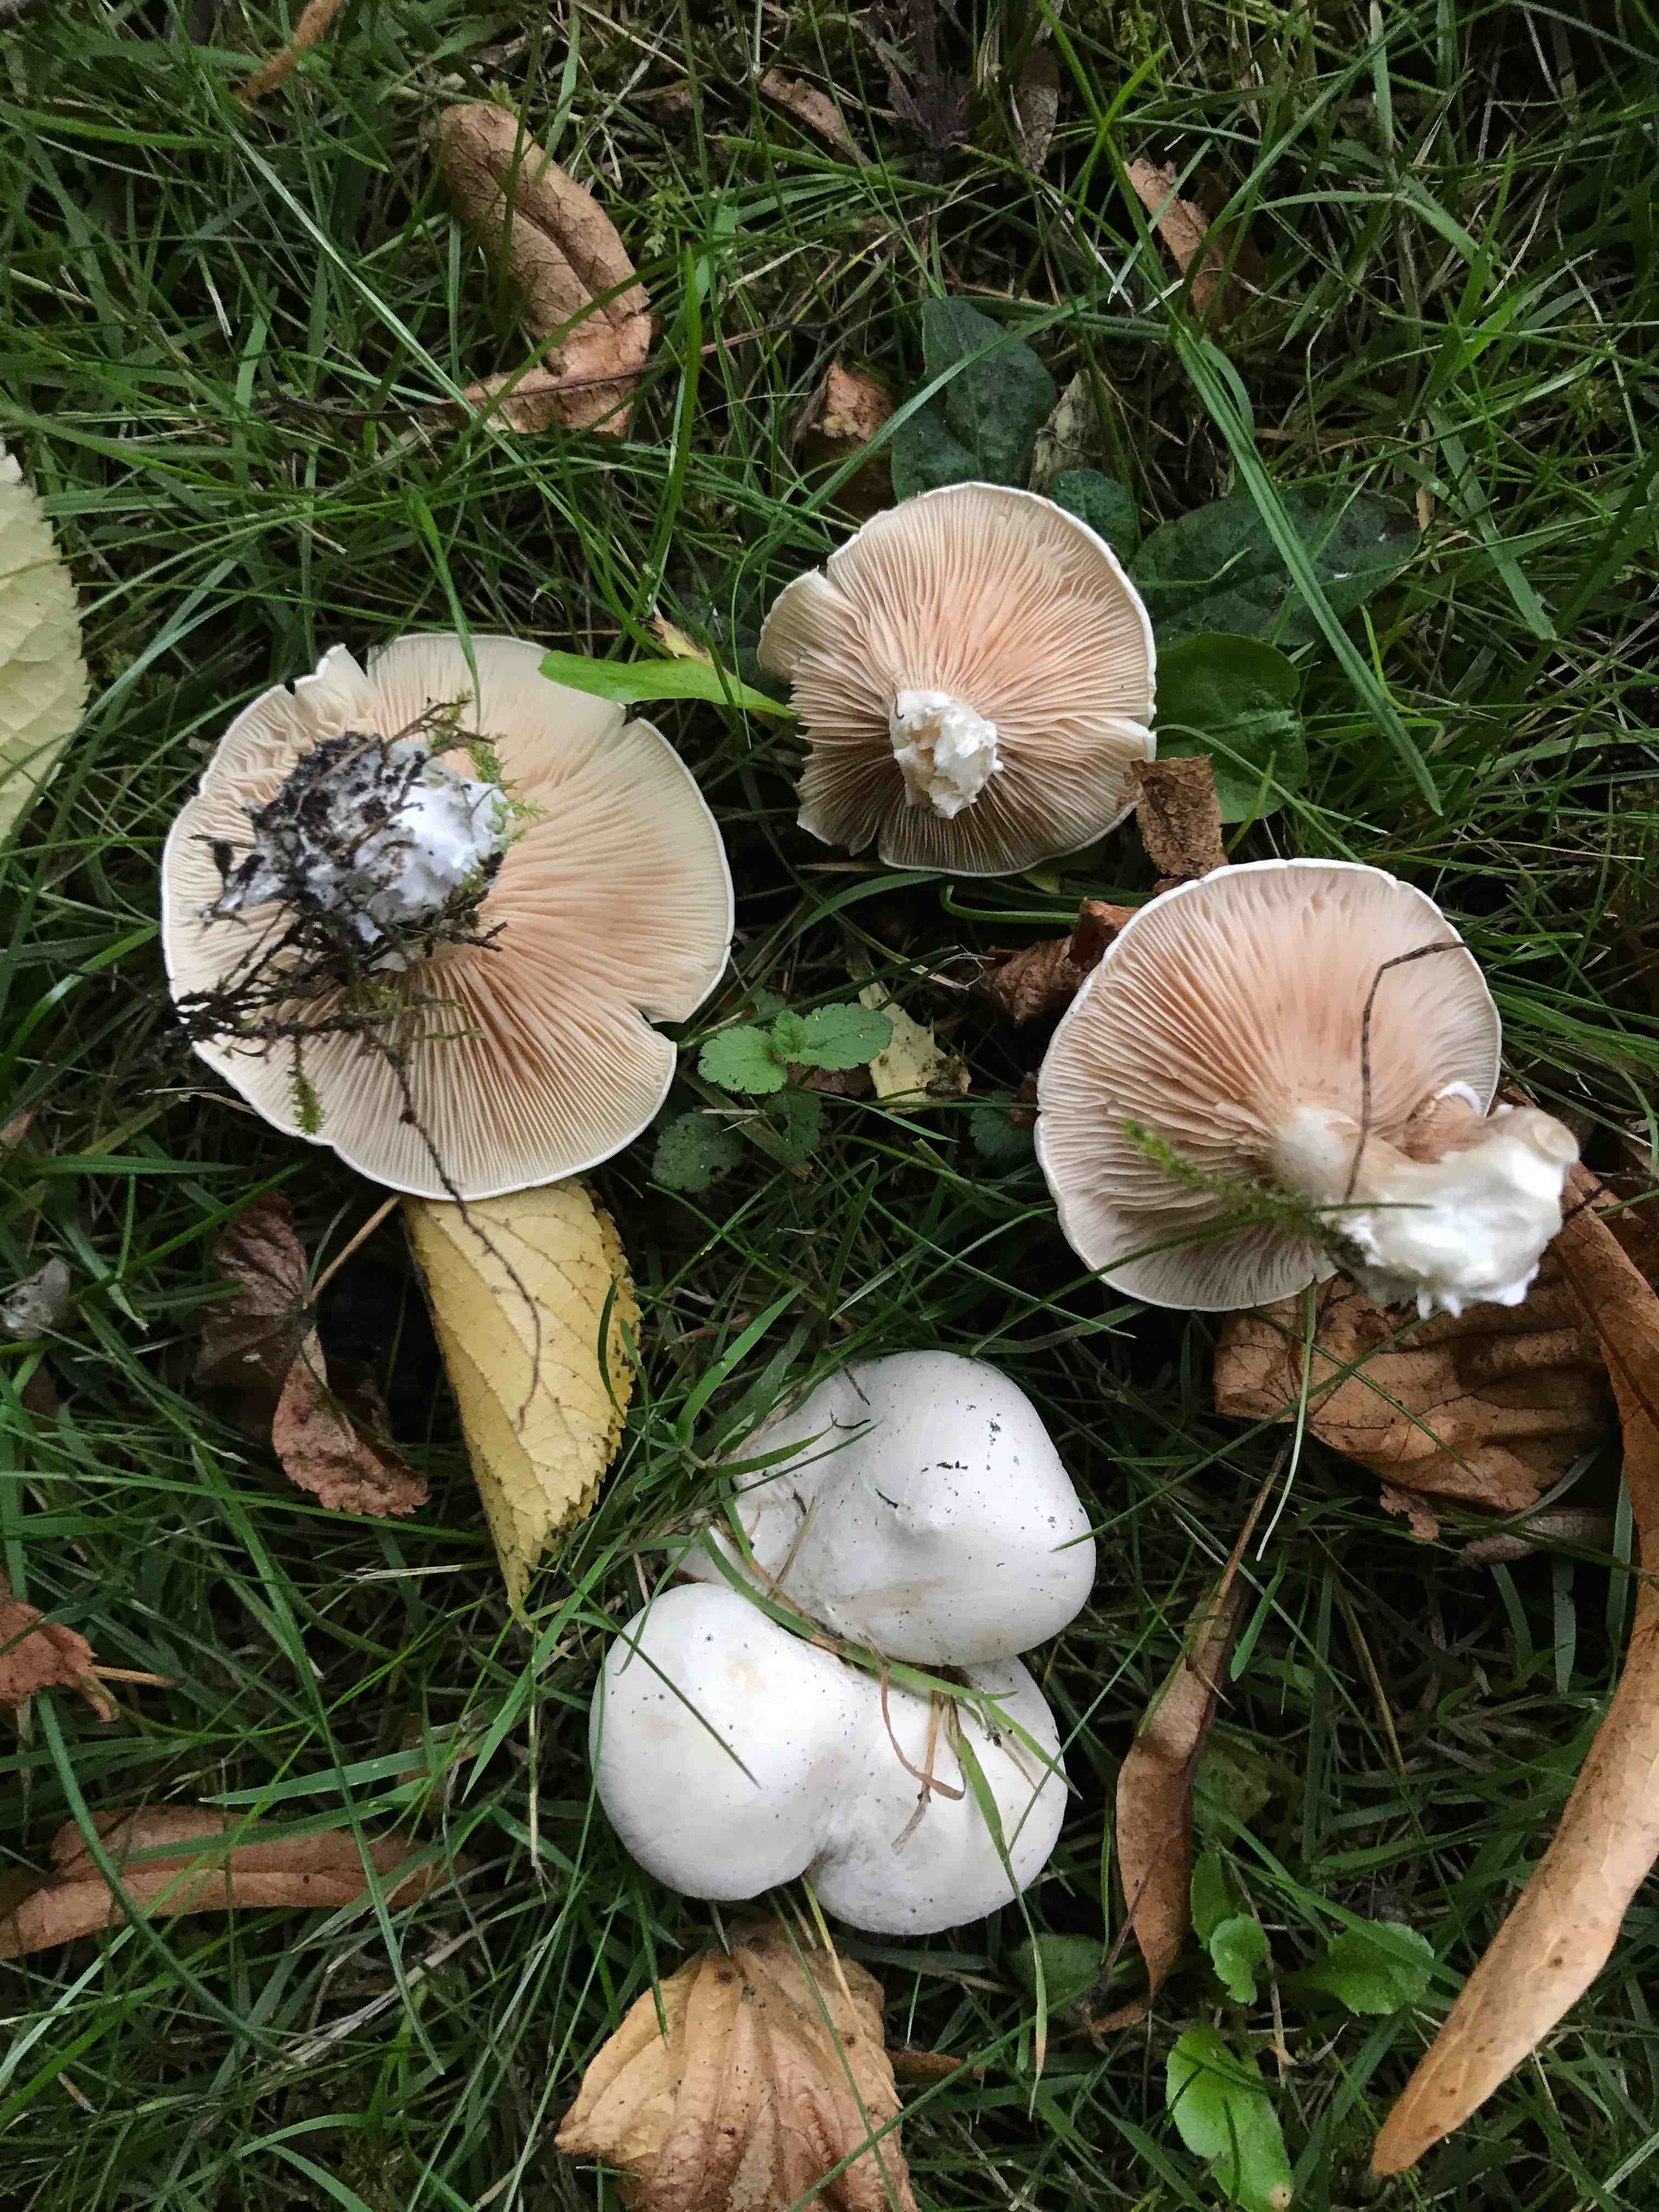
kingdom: Fungi
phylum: Basidiomycota
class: Agaricomycetes
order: Agaricales
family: Entolomataceae
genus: Clitopilus
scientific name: Clitopilus prunulus
